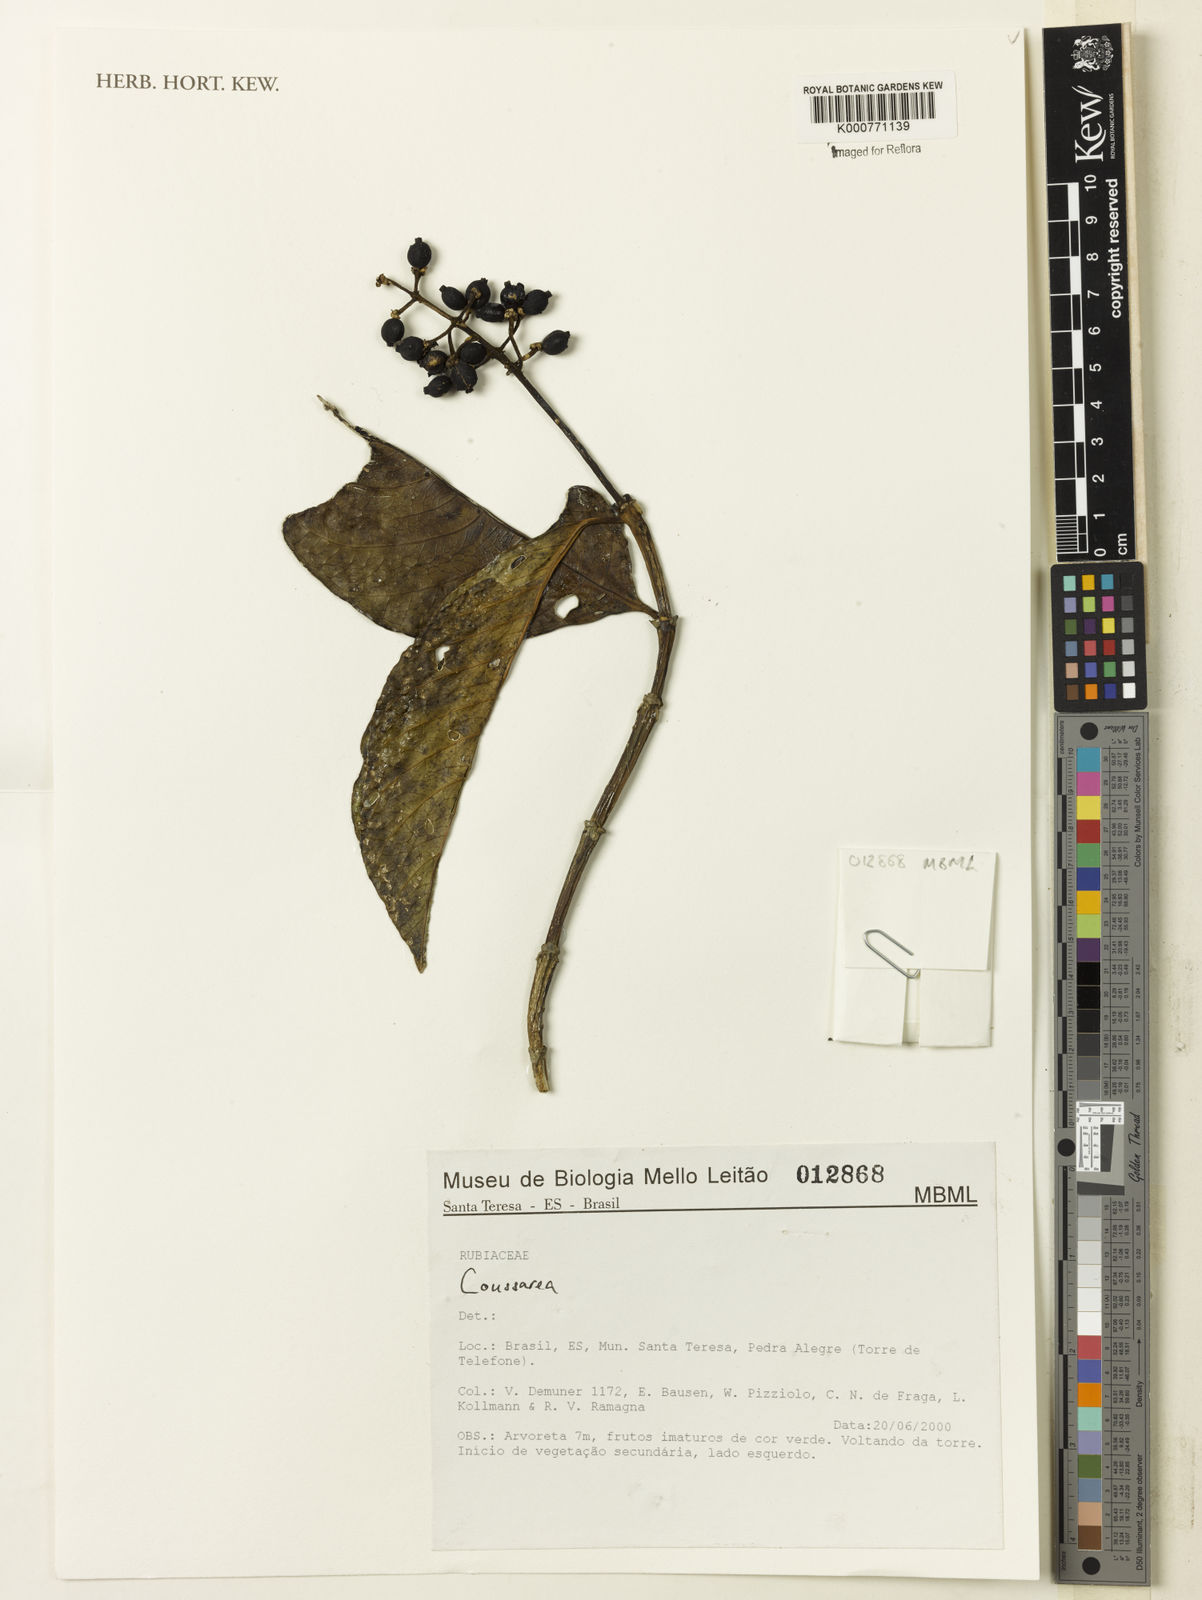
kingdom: Plantae
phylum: Tracheophyta
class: Magnoliopsida
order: Gentianales
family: Rubiaceae
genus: Coussarea
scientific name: Coussarea
